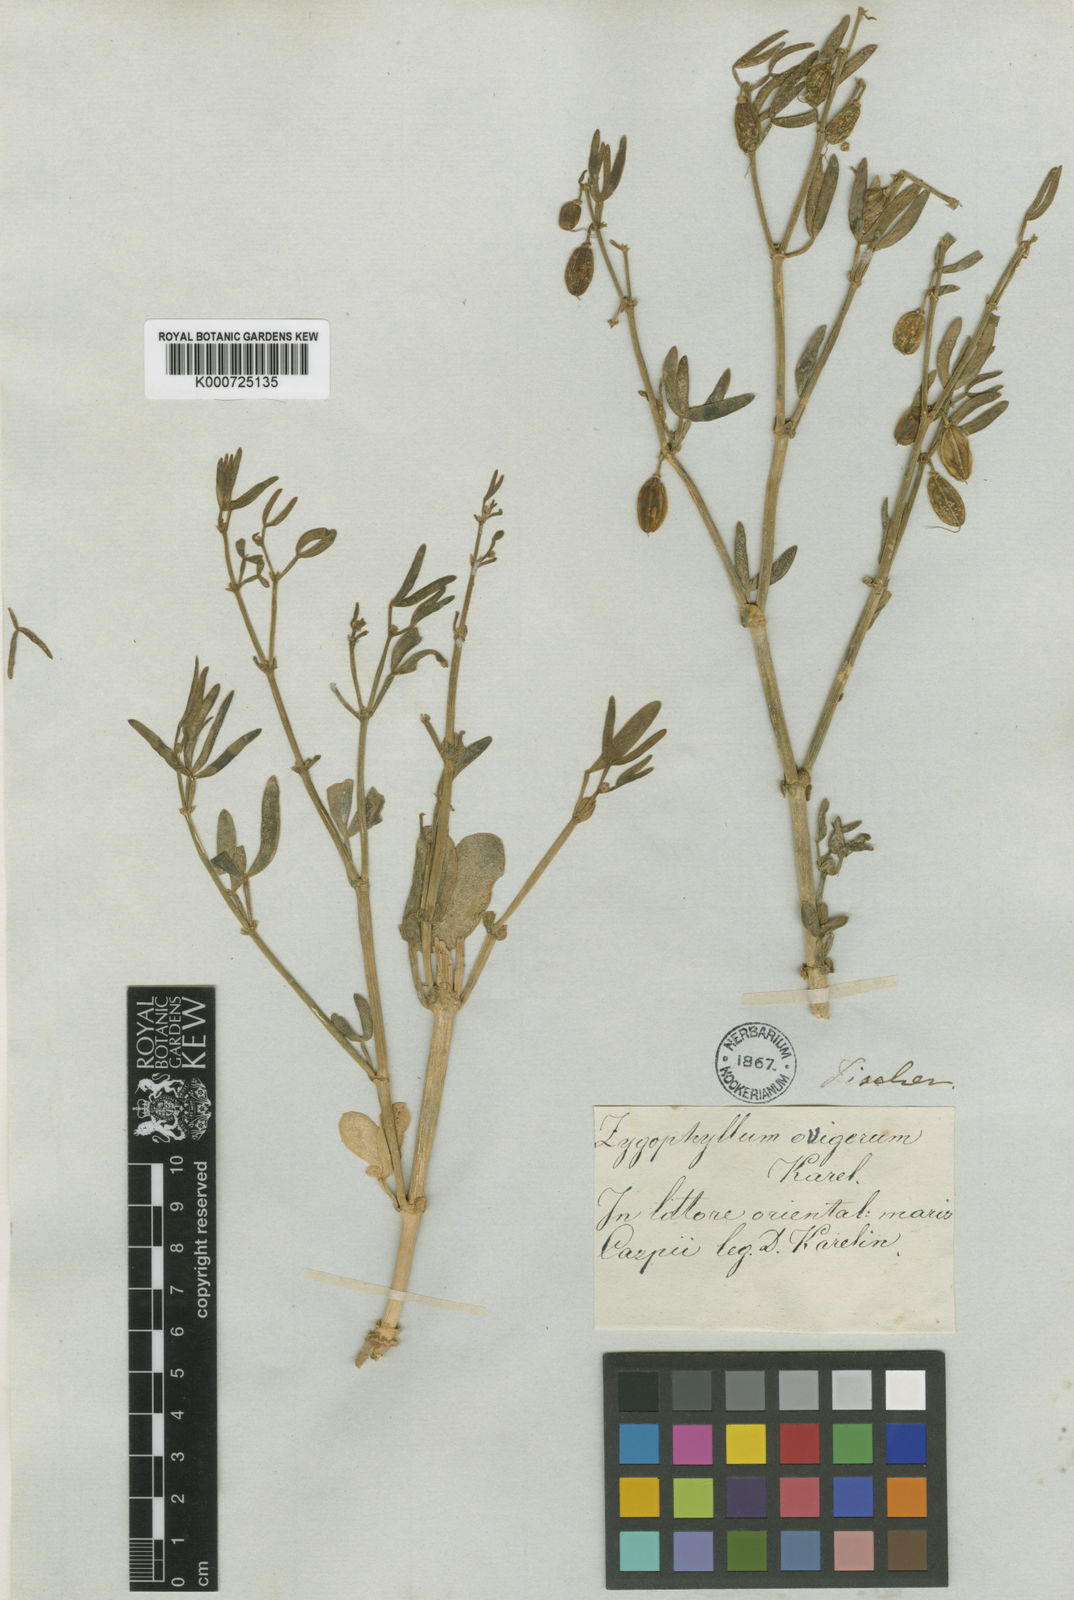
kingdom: Plantae
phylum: Tracheophyta
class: Magnoliopsida
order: Zygophyllales
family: Zygophyllaceae
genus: Zygophyllum
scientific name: Zygophyllum
